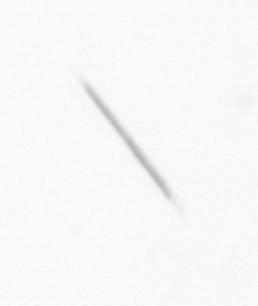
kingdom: Chromista
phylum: Ochrophyta
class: Bacillariophyceae
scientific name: Bacillariophyceae
